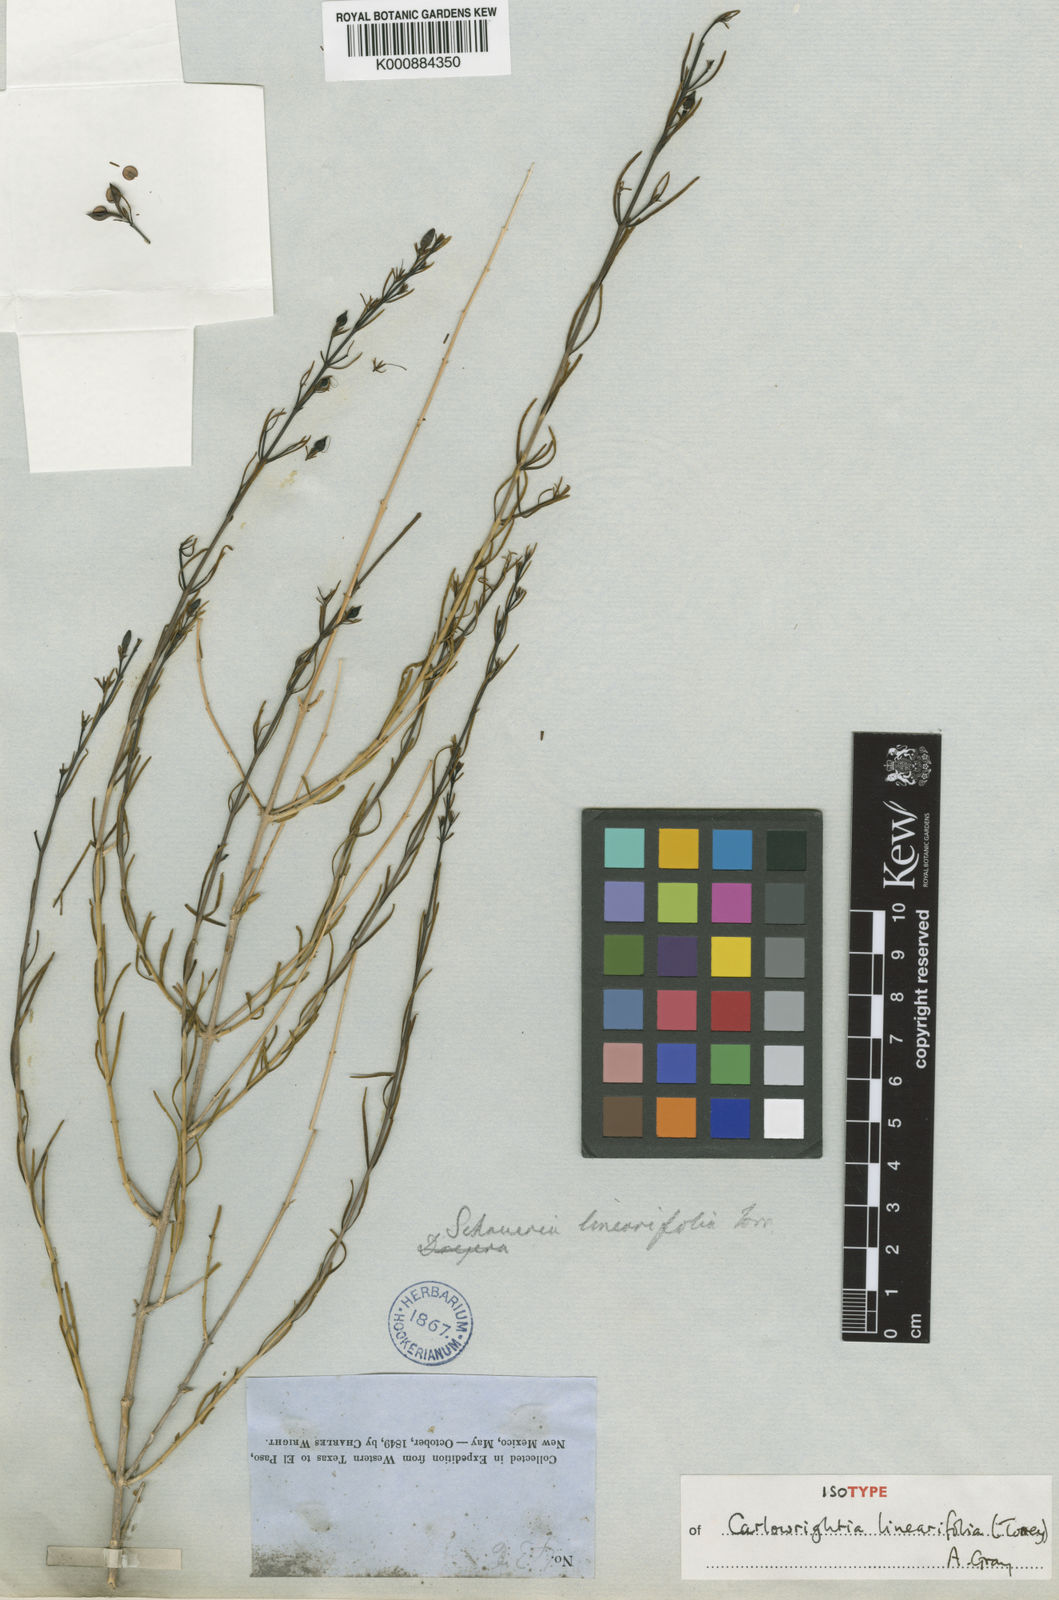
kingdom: Plantae
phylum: Tracheophyta
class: Magnoliopsida
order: Lamiales
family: Acanthaceae
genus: Carlowrightia
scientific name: Carlowrightia linearifolia
